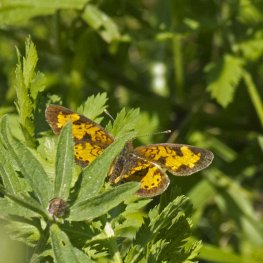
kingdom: Animalia
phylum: Arthropoda
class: Insecta
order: Lepidoptera
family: Nymphalidae
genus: Phyciodes
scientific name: Phyciodes tharos
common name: Northern Crescent
